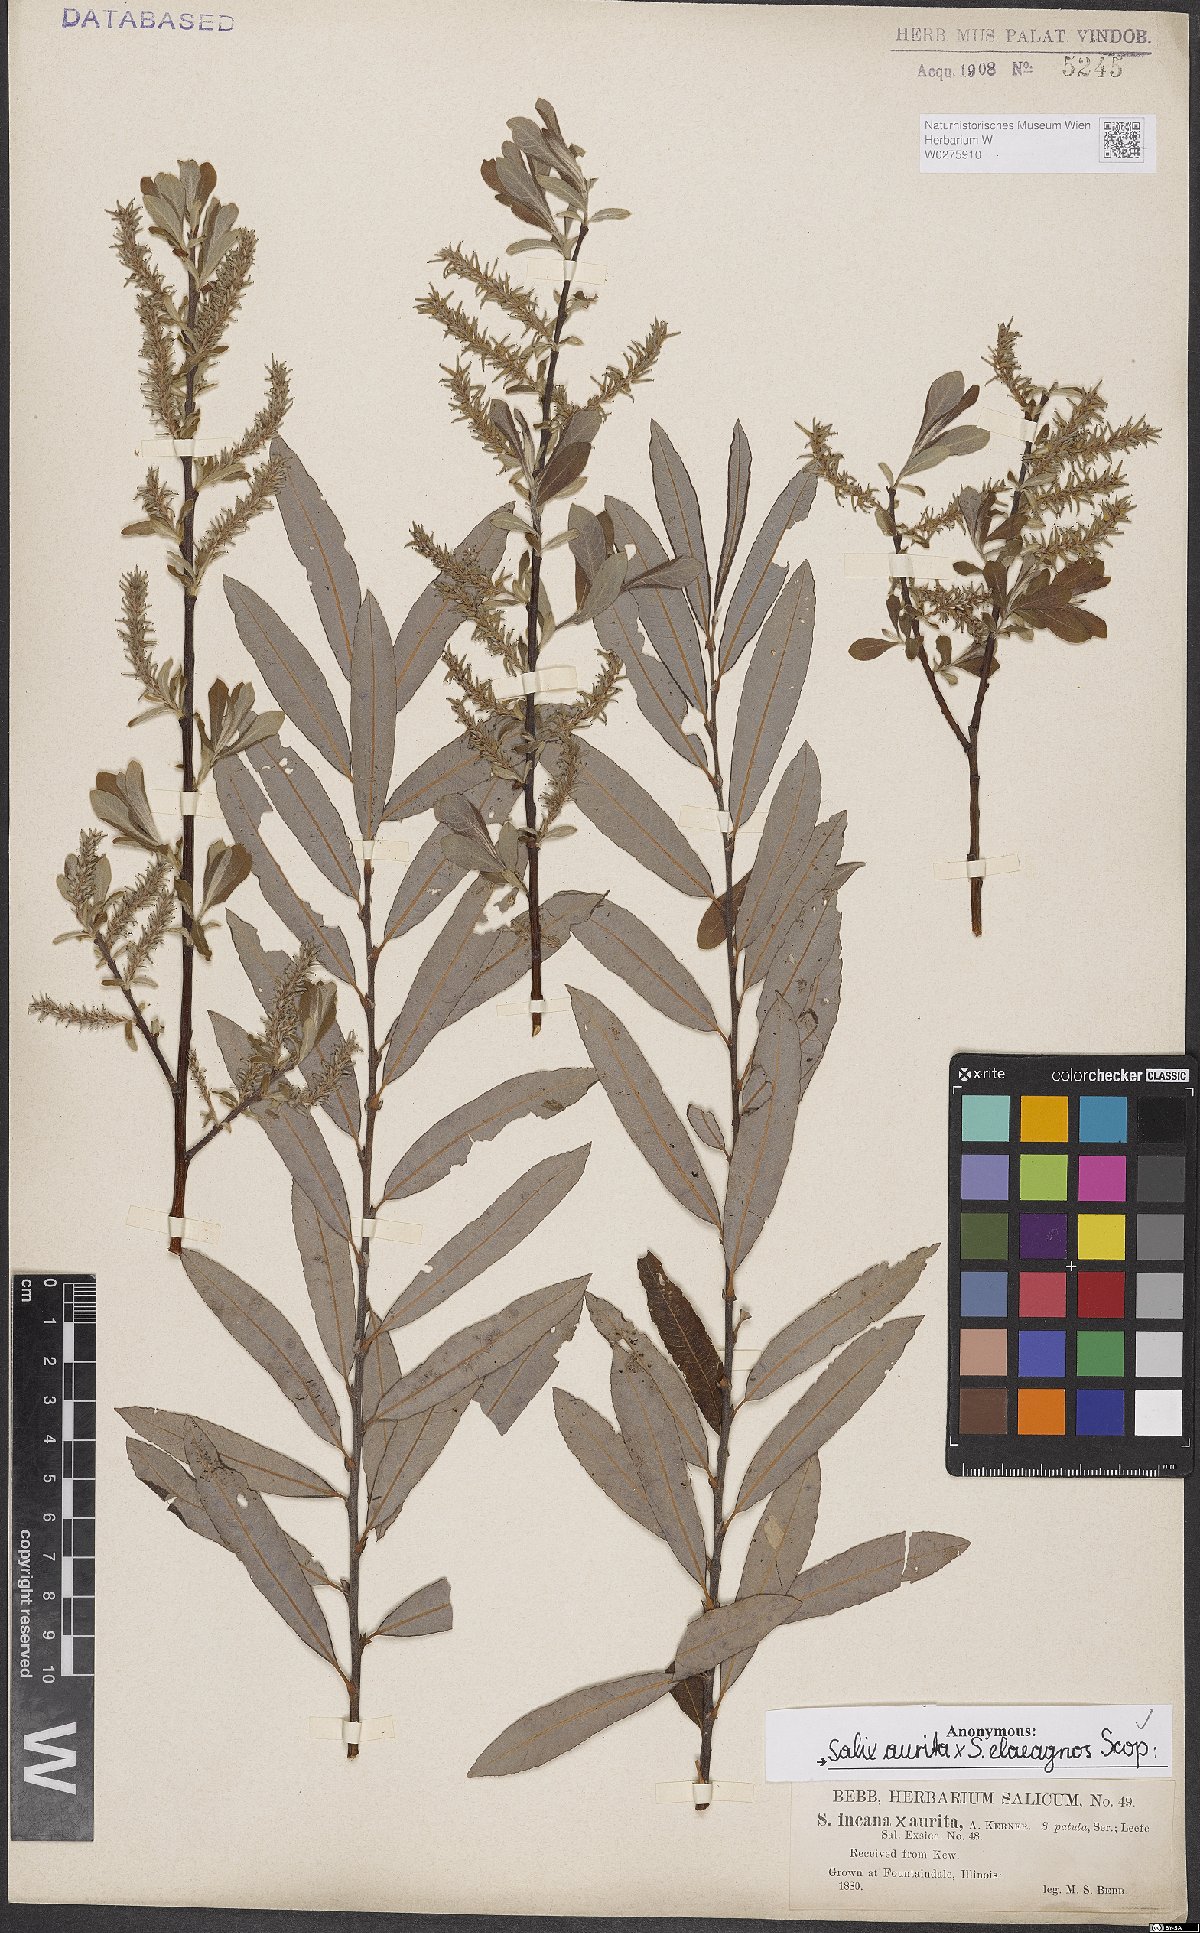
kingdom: Plantae
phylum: Tracheophyta
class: Magnoliopsida
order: Malpighiales
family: Salicaceae
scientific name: Salicaceae
